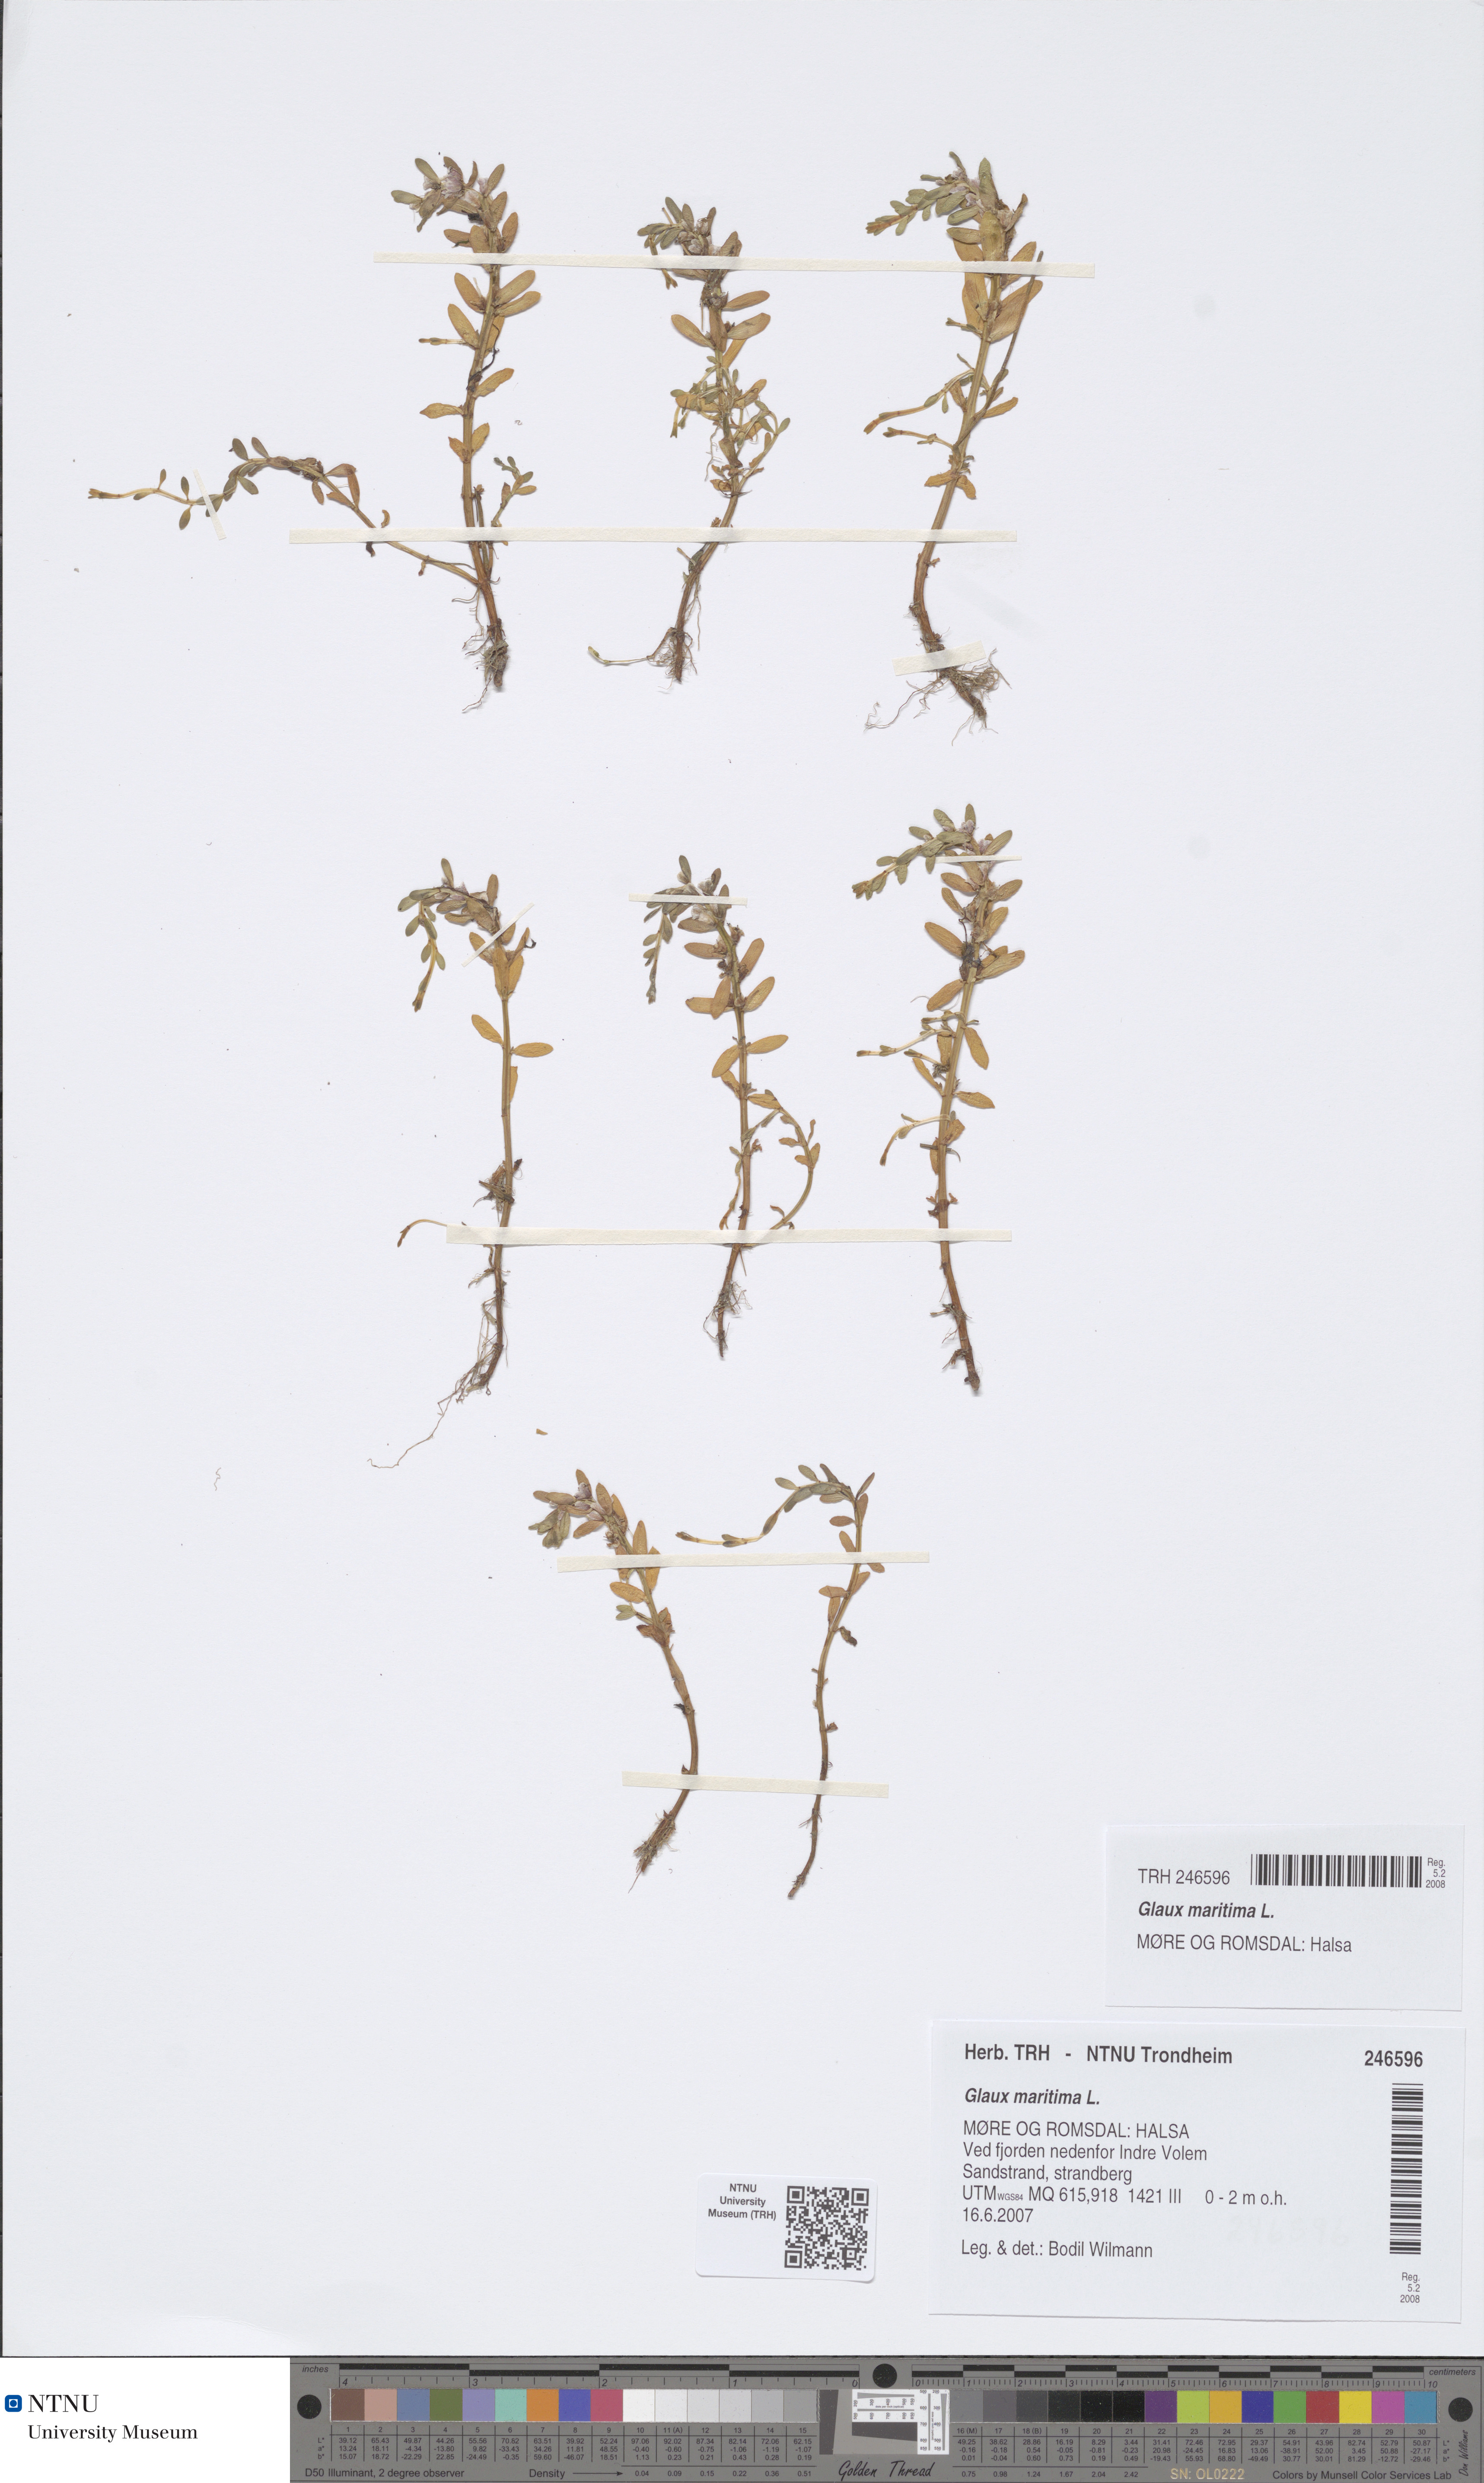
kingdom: Plantae
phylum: Tracheophyta
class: Magnoliopsida
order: Ericales
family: Primulaceae
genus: Lysimachia
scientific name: Lysimachia maritima
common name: Sea milkwort
